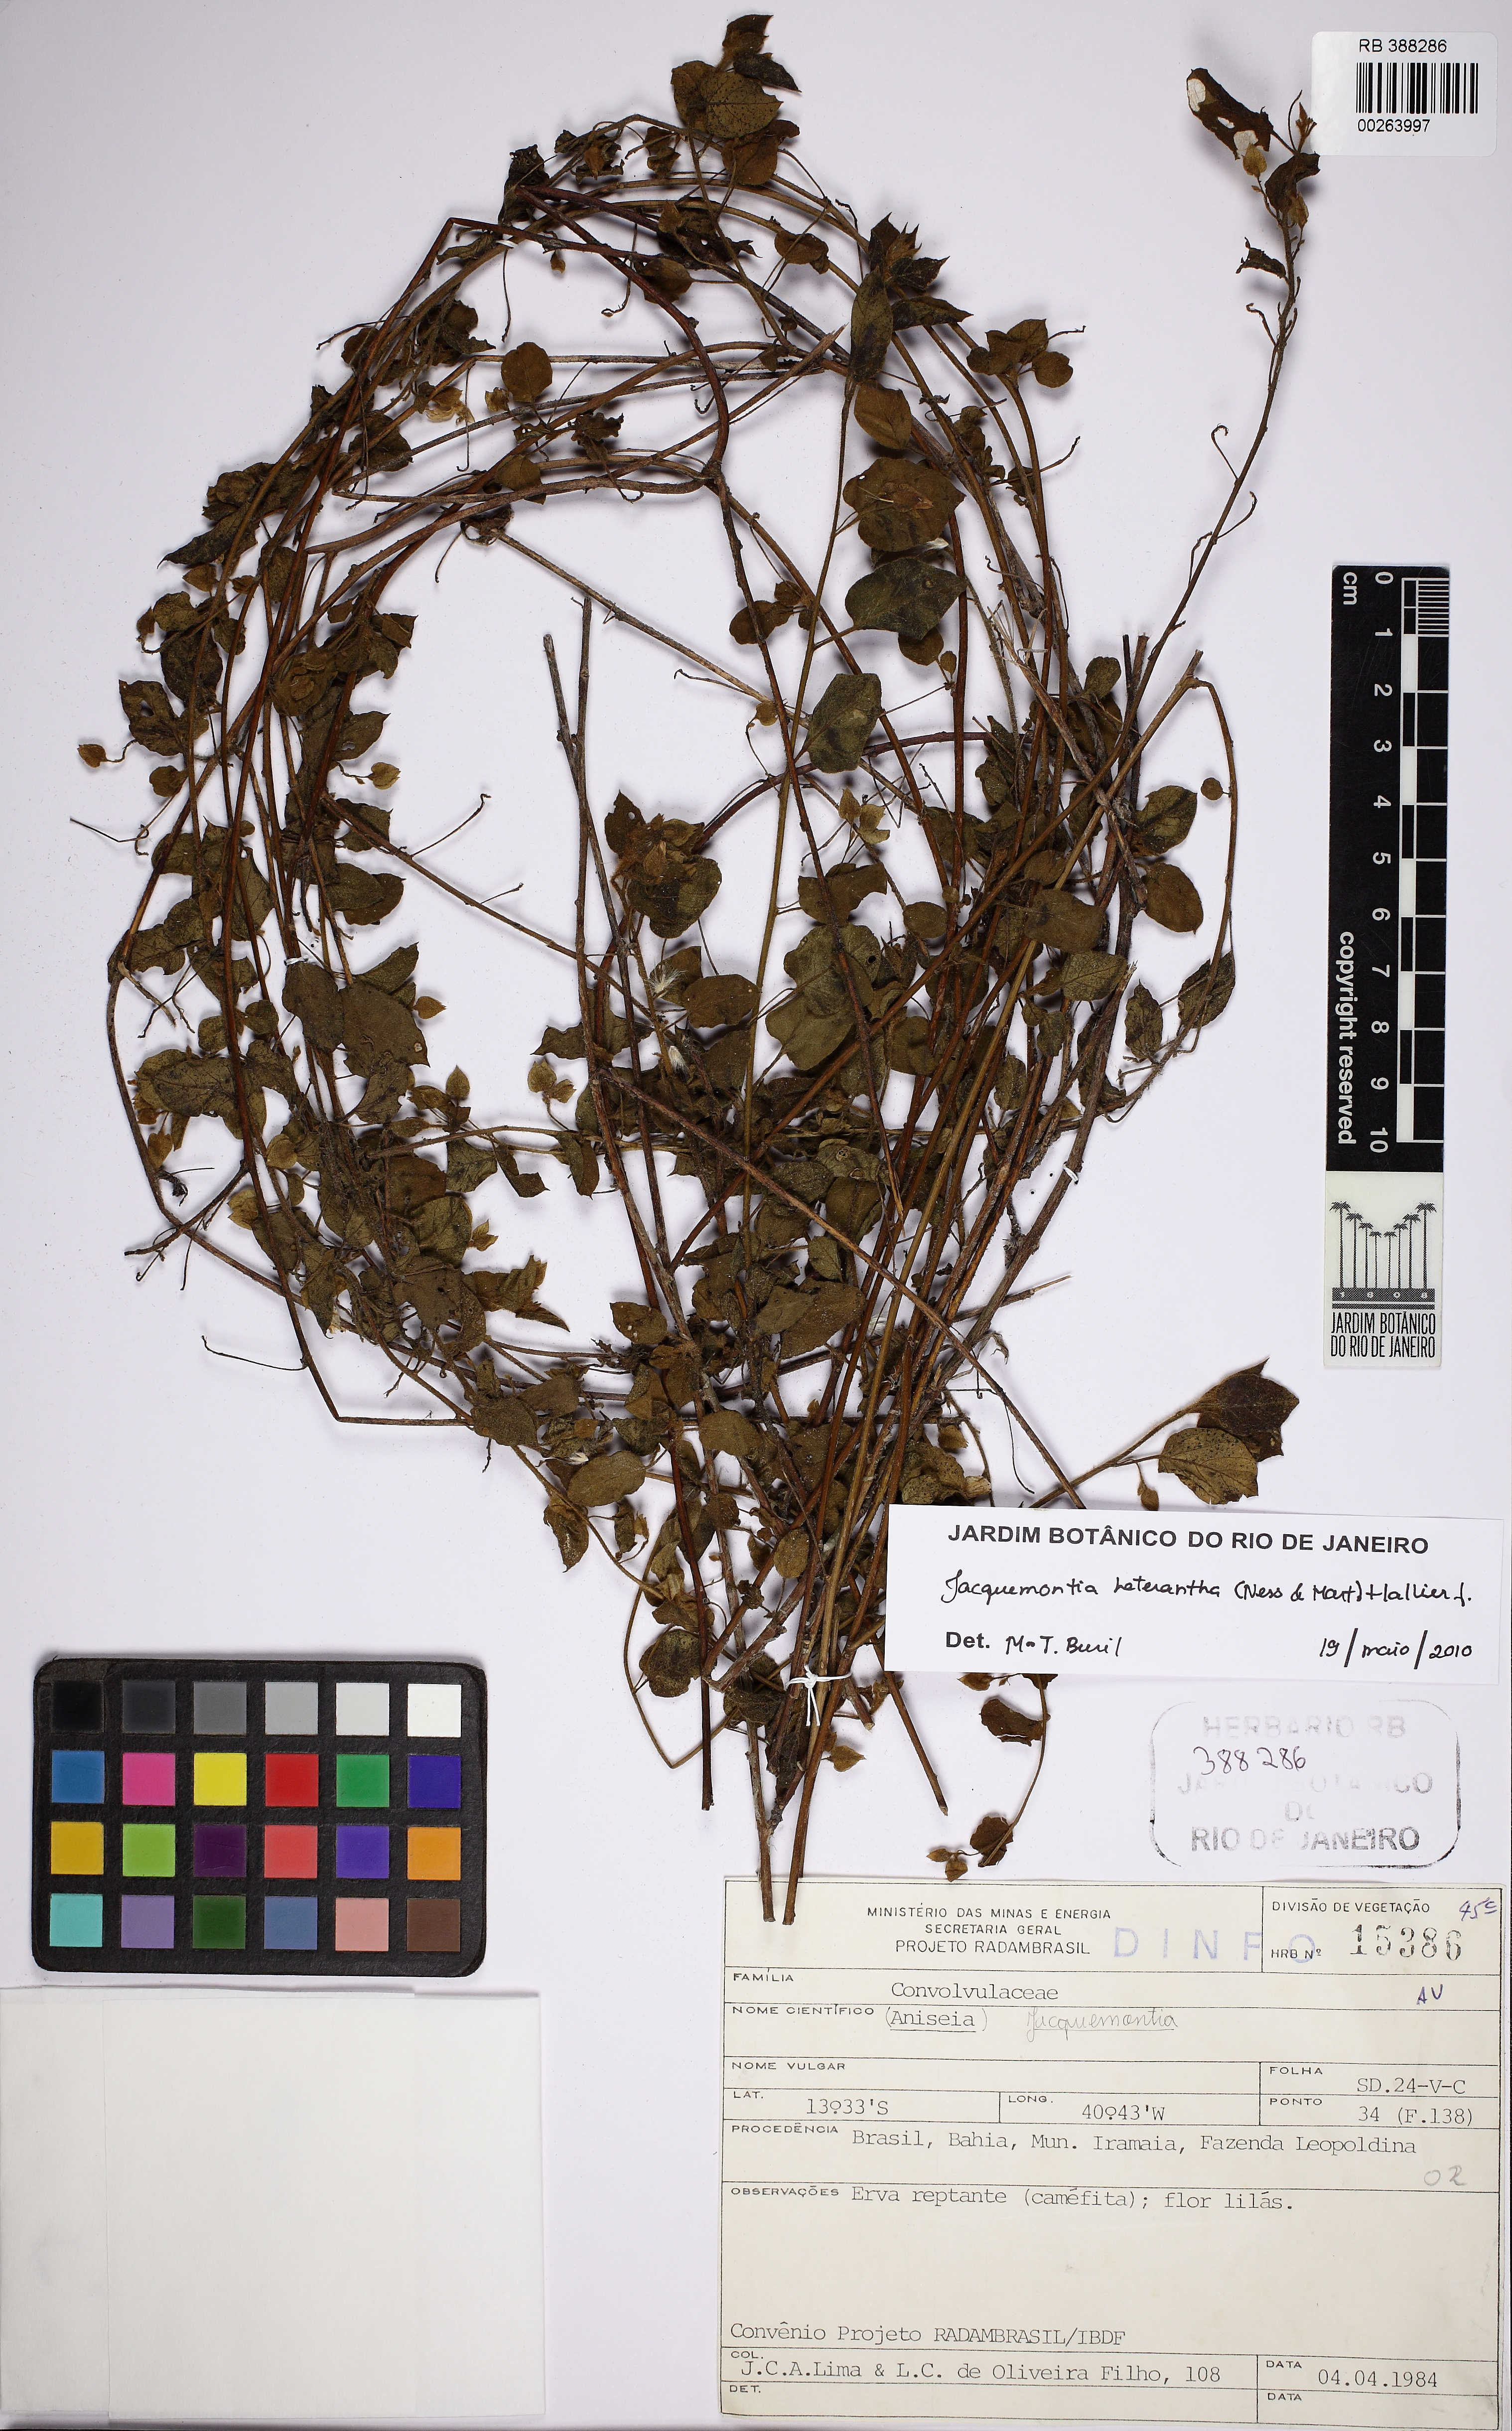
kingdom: Plantae
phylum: Tracheophyta
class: Magnoliopsida
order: Solanales
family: Convolvulaceae
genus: Jacquemontia
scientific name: Jacquemontia cumanensis
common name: Thicket clustervine
